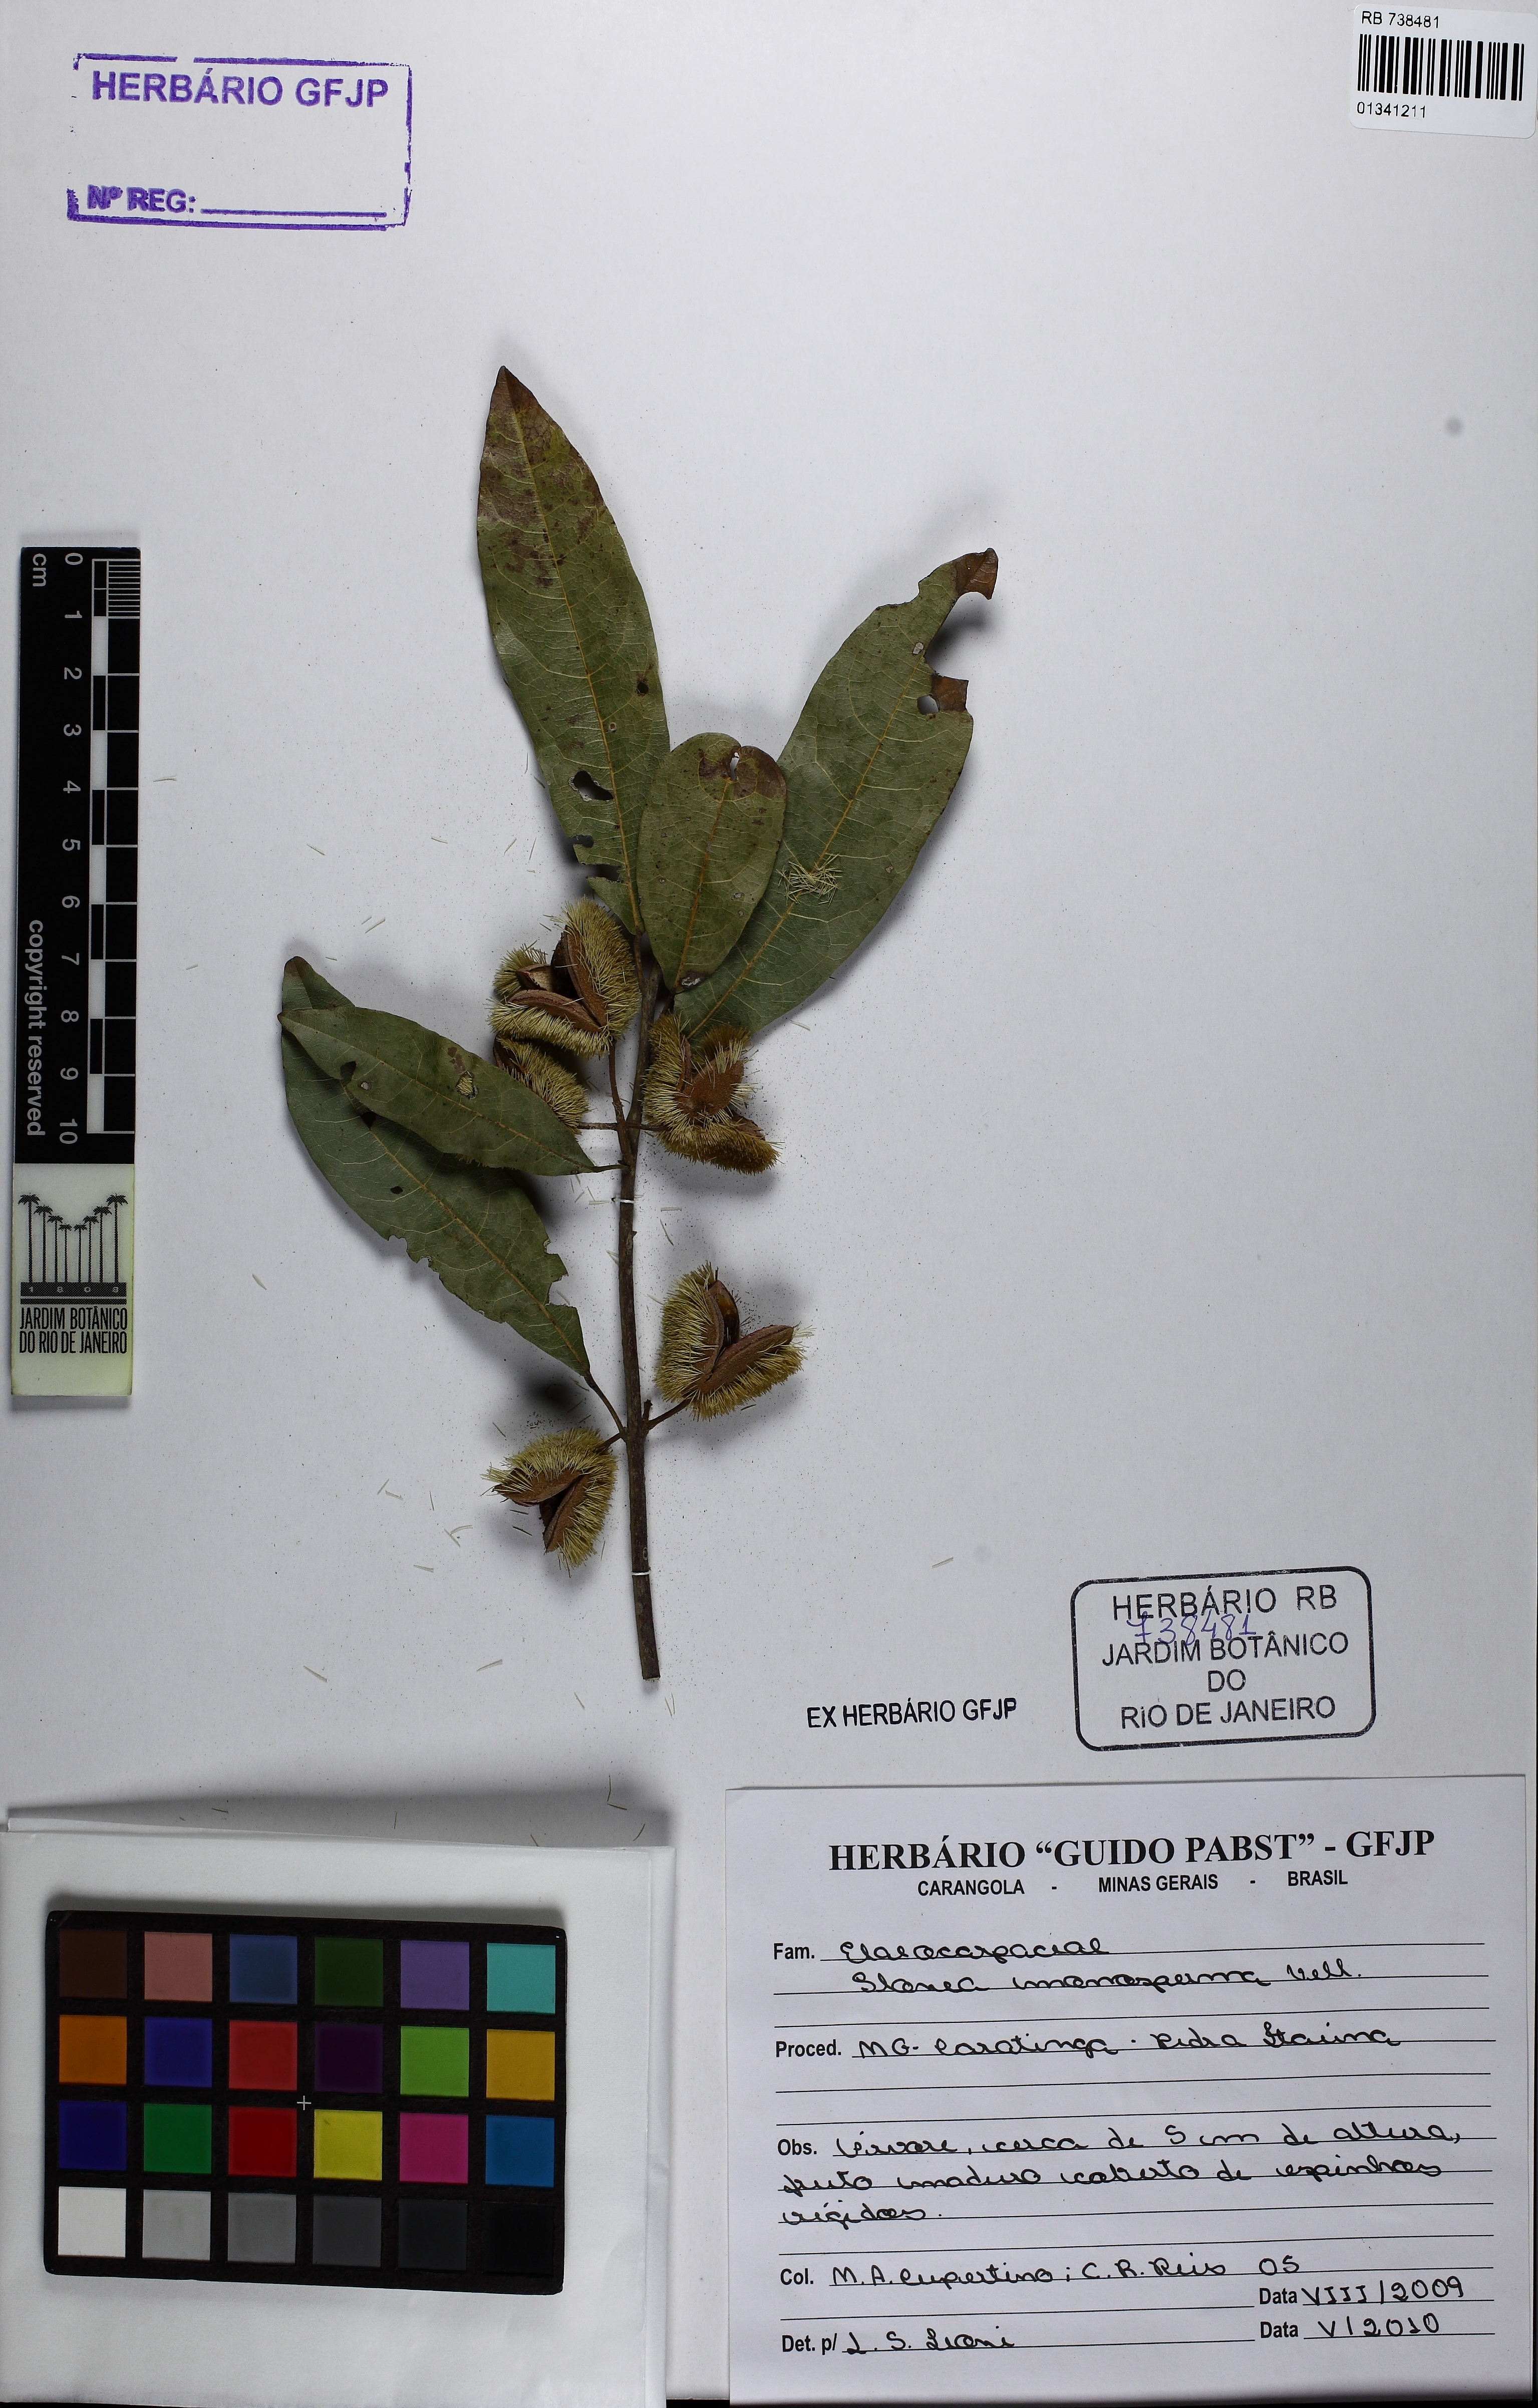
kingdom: Plantae
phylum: Tracheophyta
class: Magnoliopsida
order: Oxalidales
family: Elaeocarpaceae
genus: Sloanea
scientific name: Sloanea hirsuta
